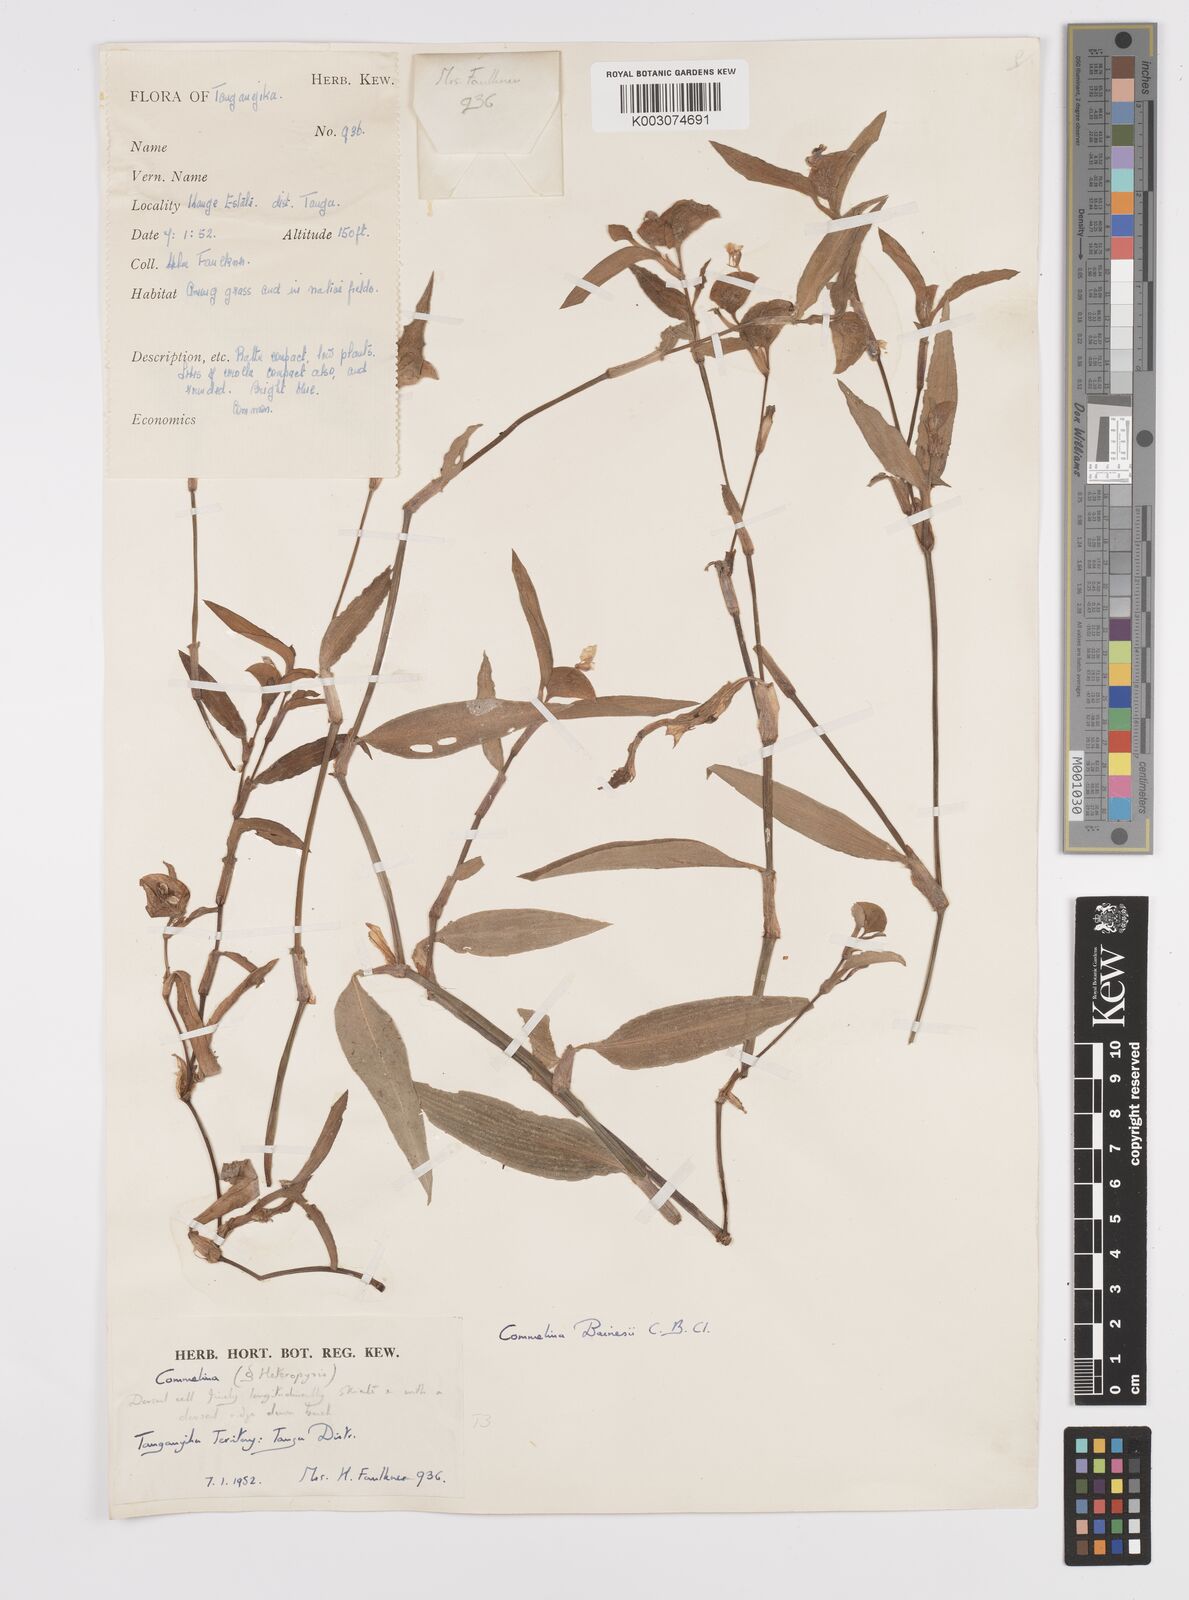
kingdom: Plantae
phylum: Tracheophyta
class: Liliopsida
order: Commelinales
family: Commelinaceae
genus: Commelina
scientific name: Commelina bracteosa
